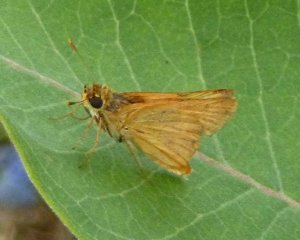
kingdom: Animalia
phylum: Arthropoda
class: Insecta
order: Lepidoptera
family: Hesperiidae
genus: Atrytone
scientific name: Atrytone delaware
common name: Delaware Skipper
